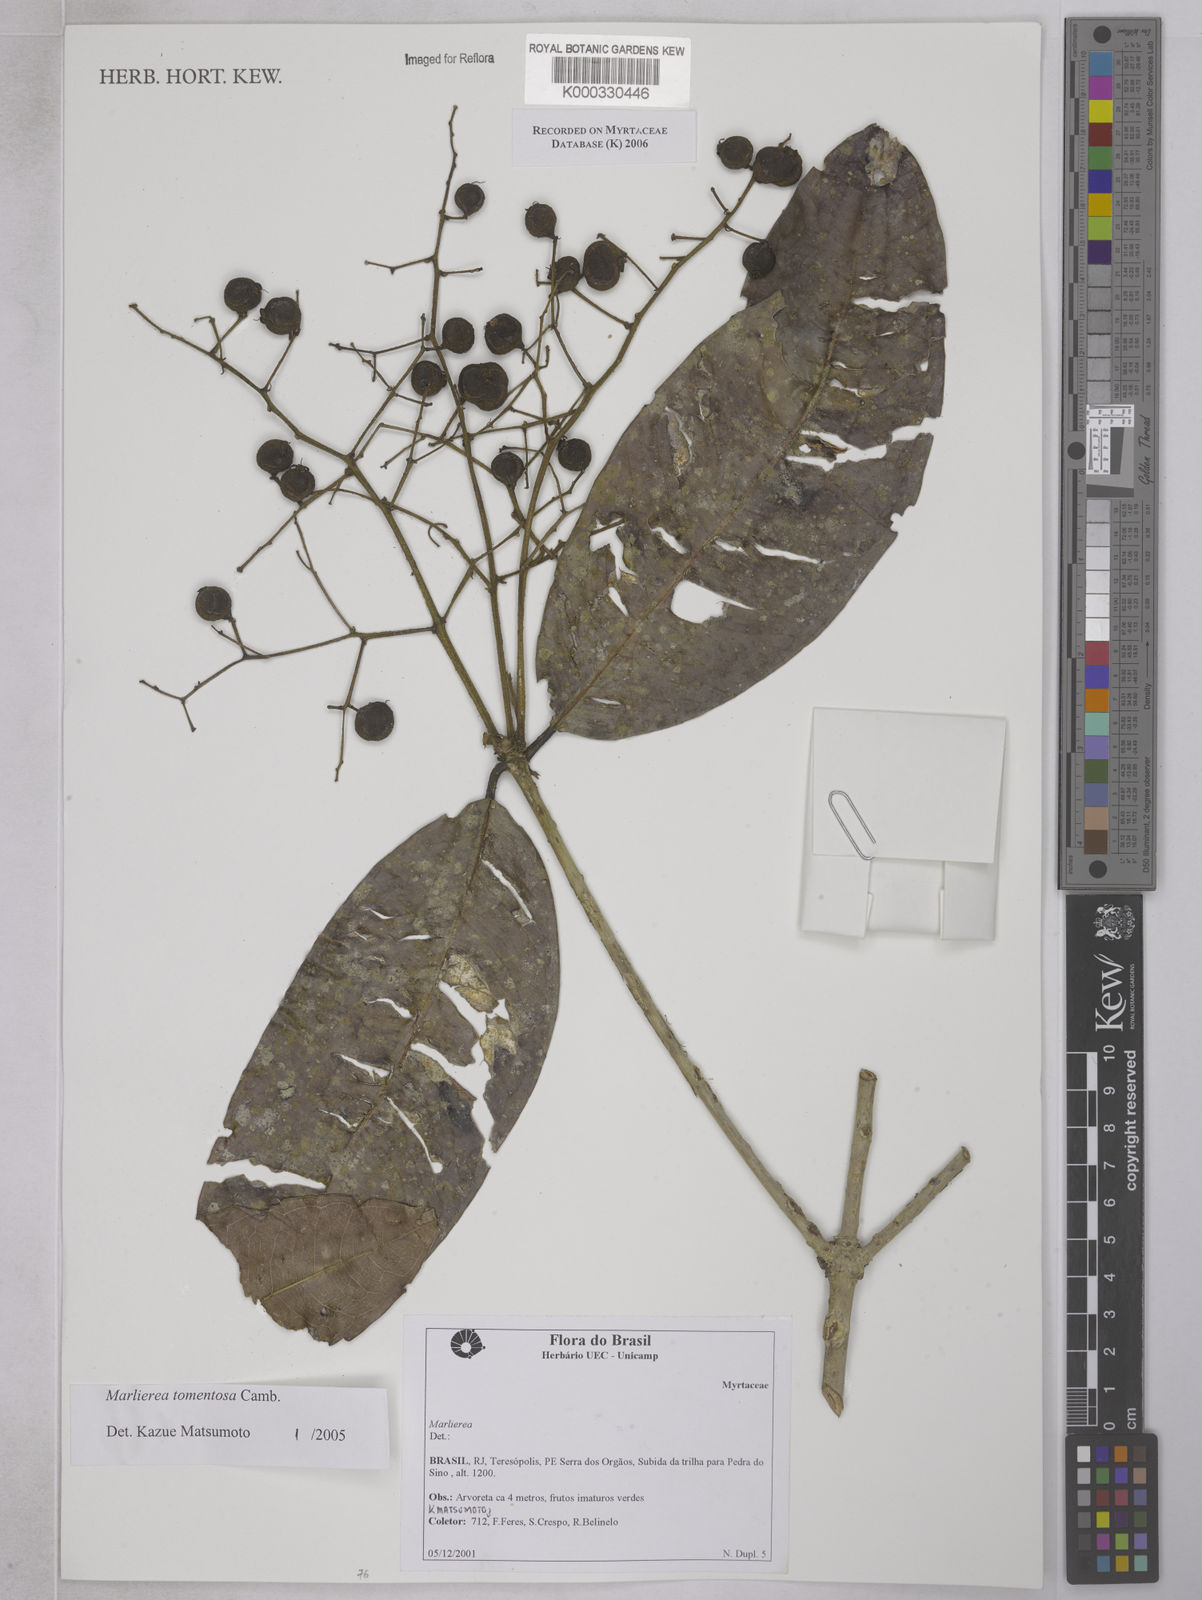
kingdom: Plantae
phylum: Tracheophyta
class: Magnoliopsida
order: Myrtales
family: Myrtaceae
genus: Myrcia
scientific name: Myrcia neotomentosa
